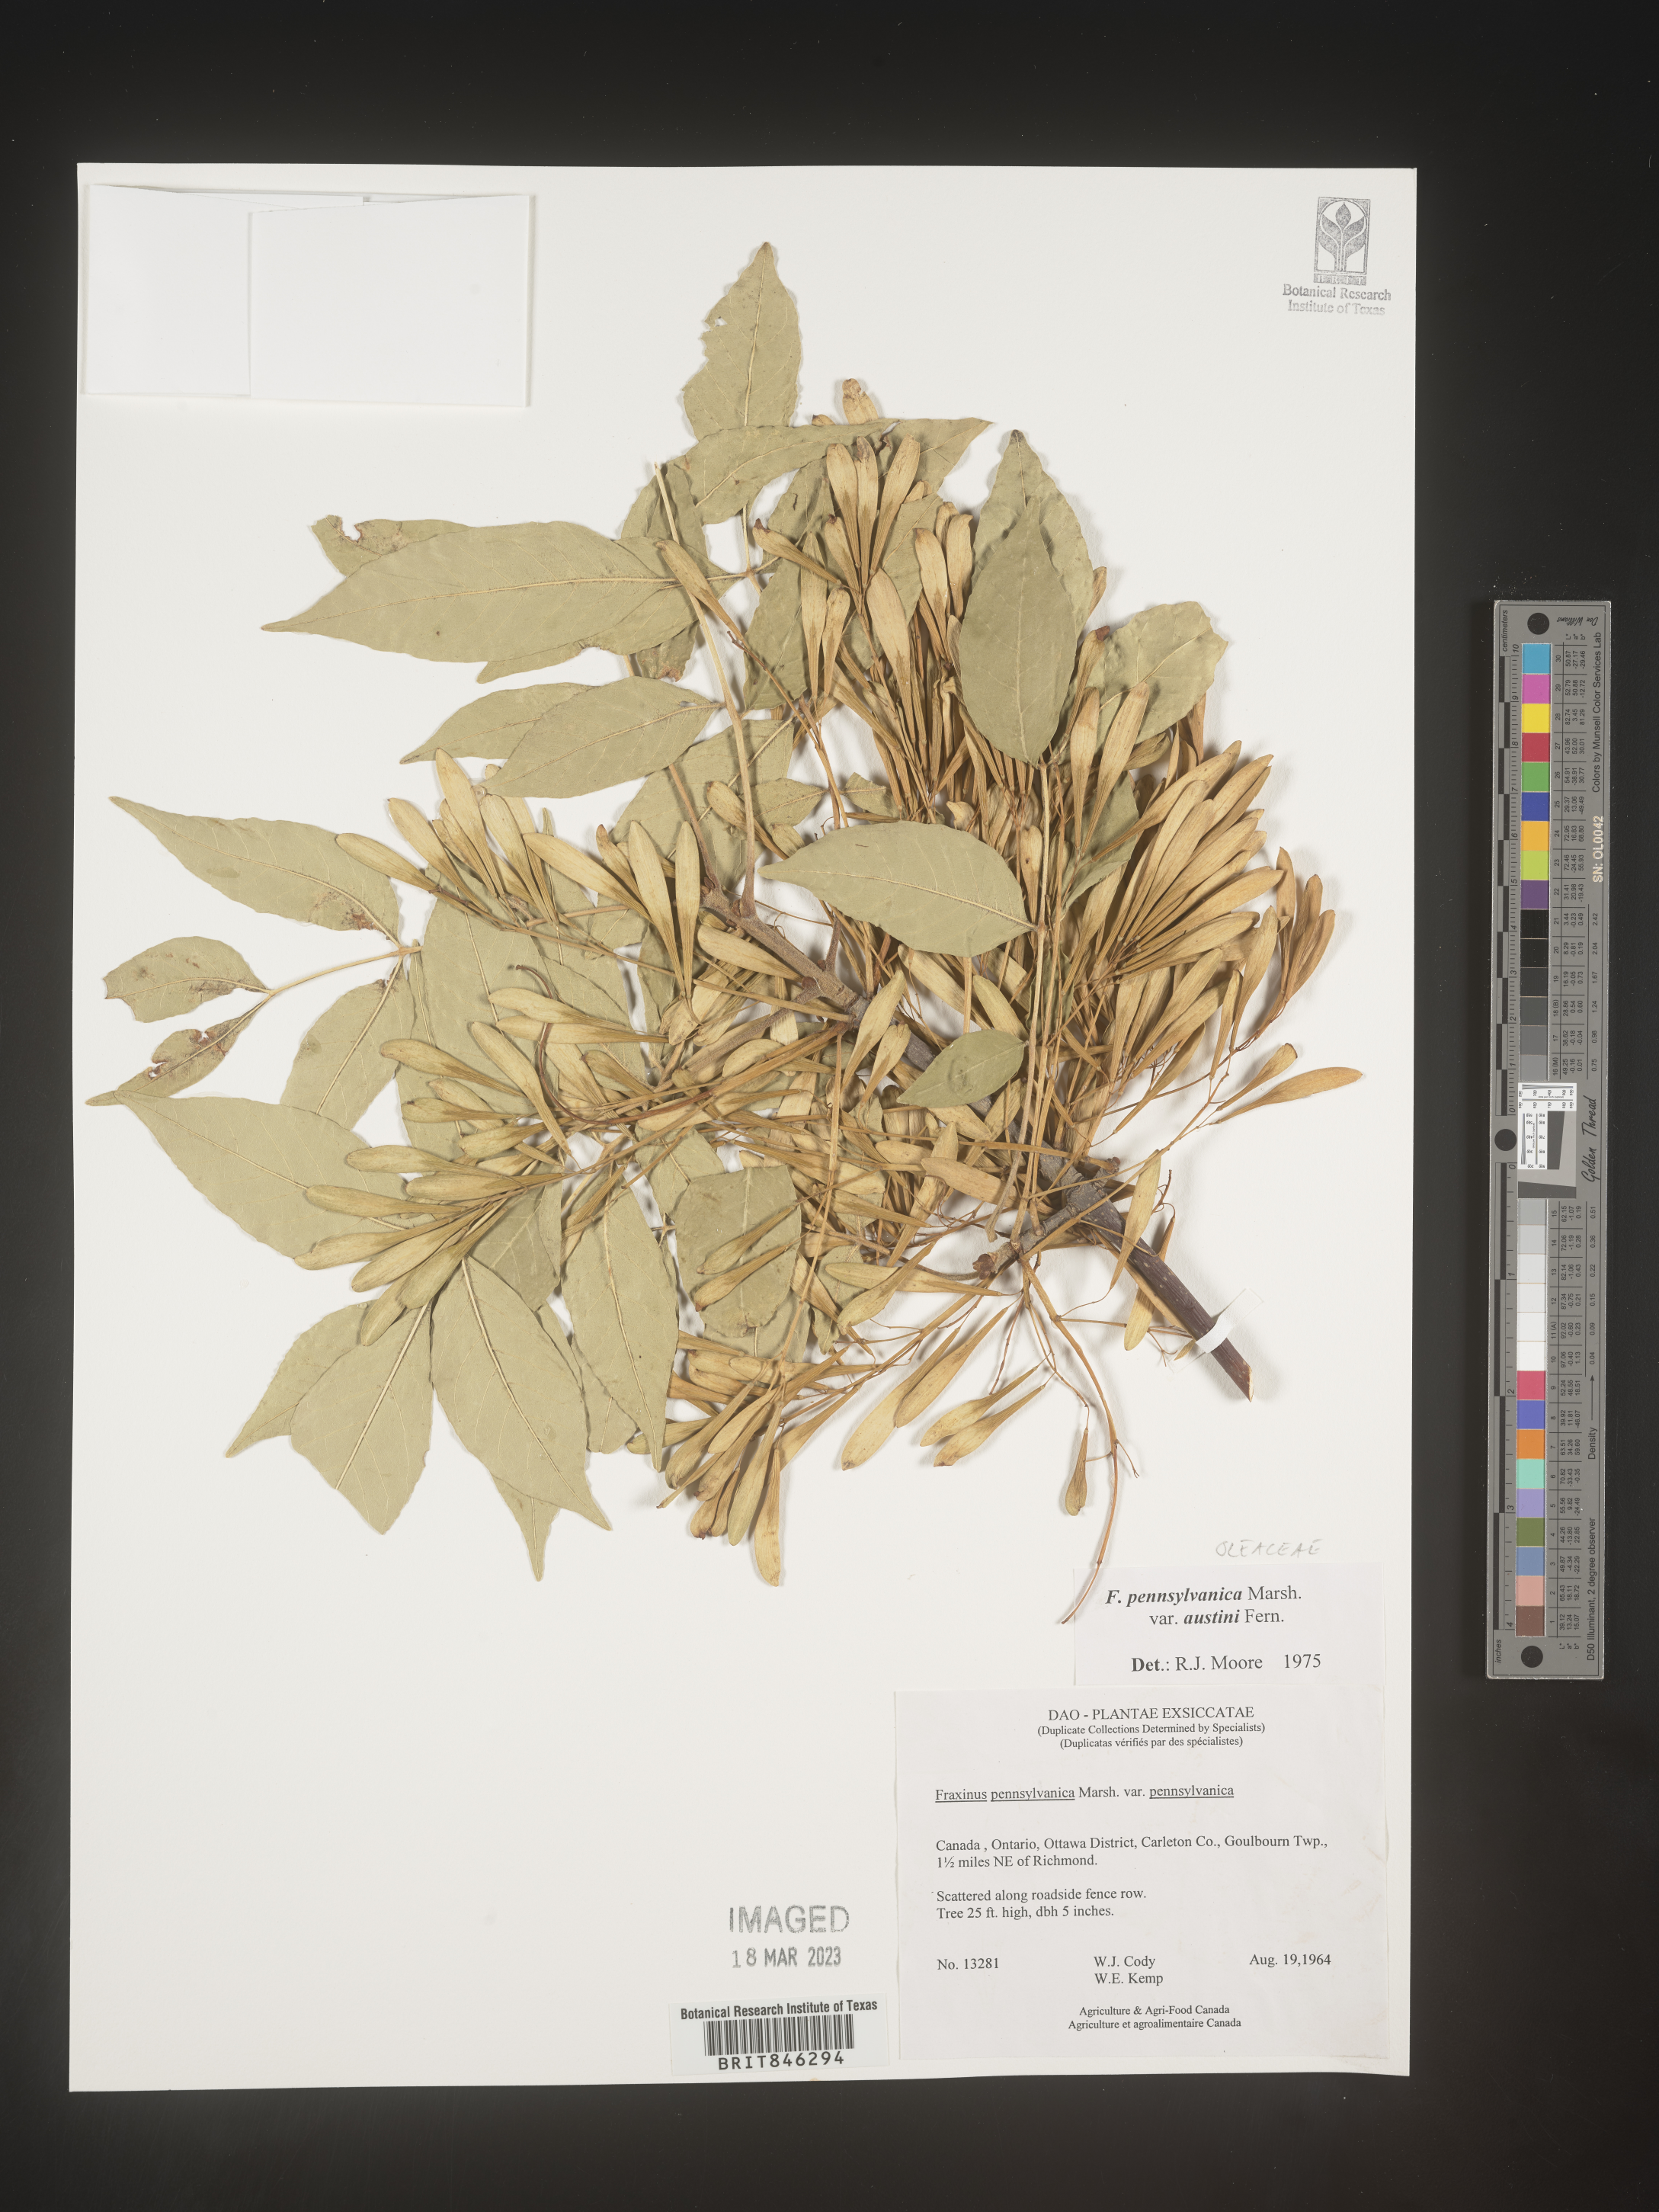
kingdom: Plantae
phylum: Tracheophyta
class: Magnoliopsida
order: Lamiales
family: Oleaceae
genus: Fraxinus
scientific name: Fraxinus pennsylvanica
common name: Green ash
